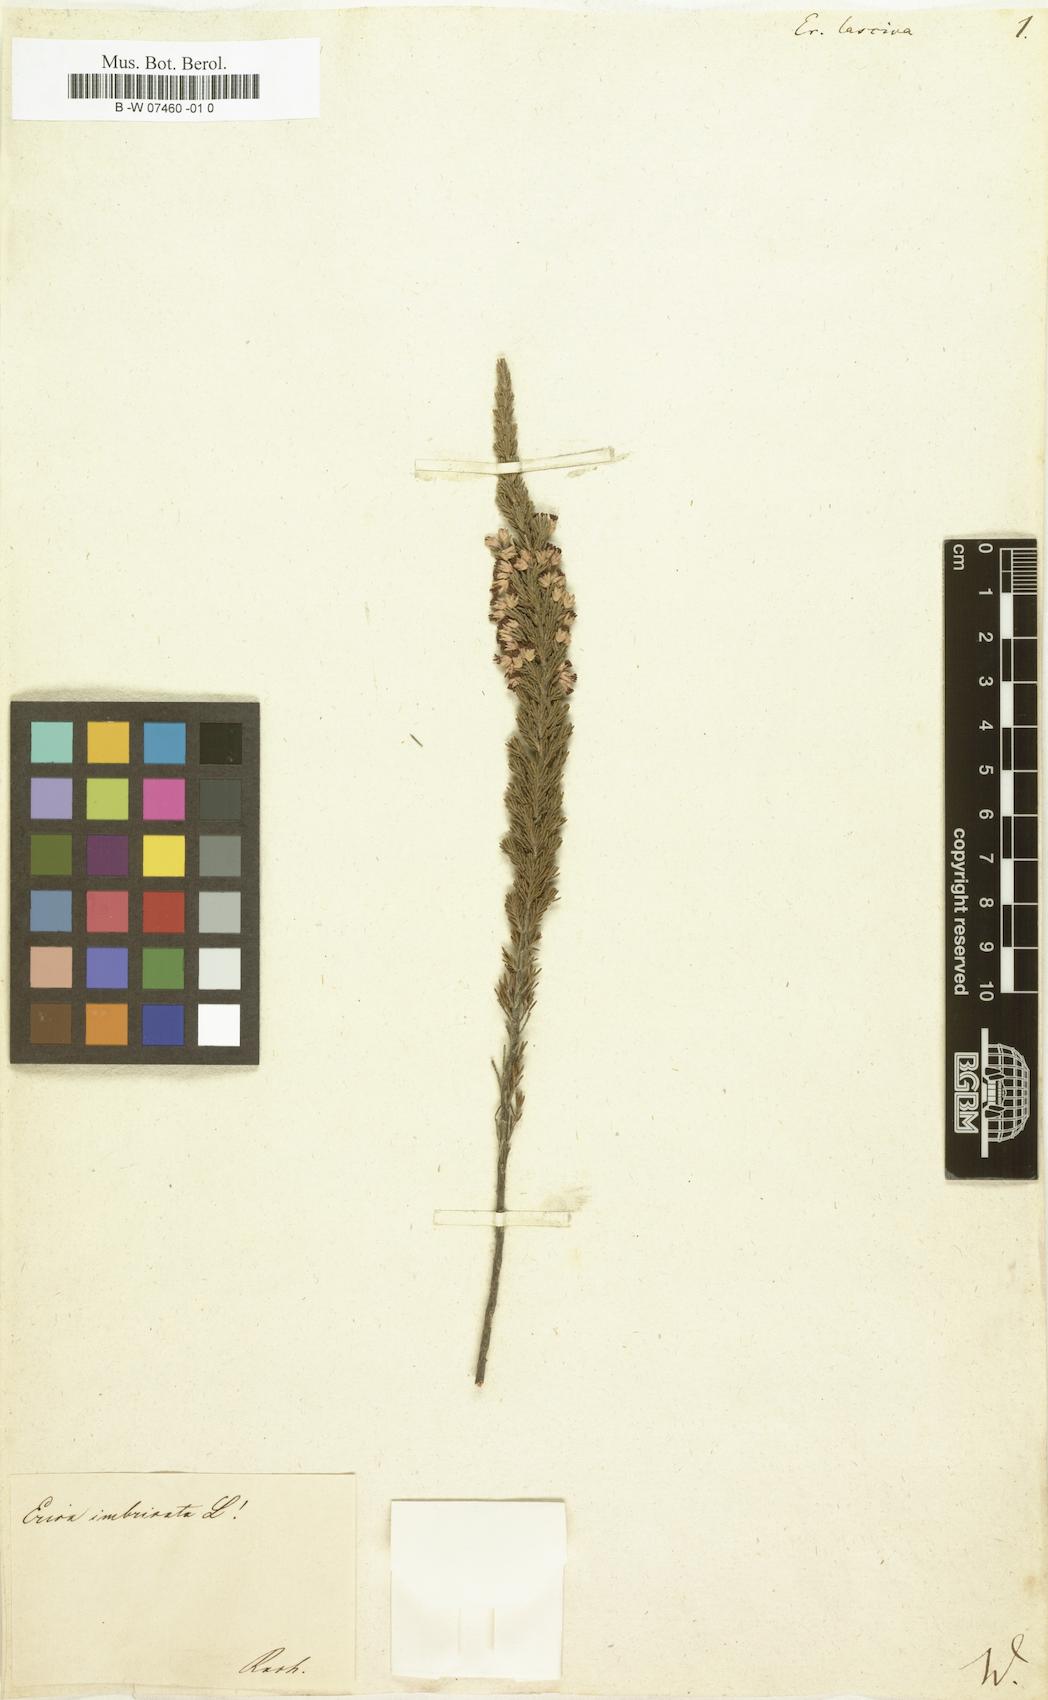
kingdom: Plantae
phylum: Tracheophyta
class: Magnoliopsida
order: Ericales
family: Ericaceae
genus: Erica
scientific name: Erica lasciva
